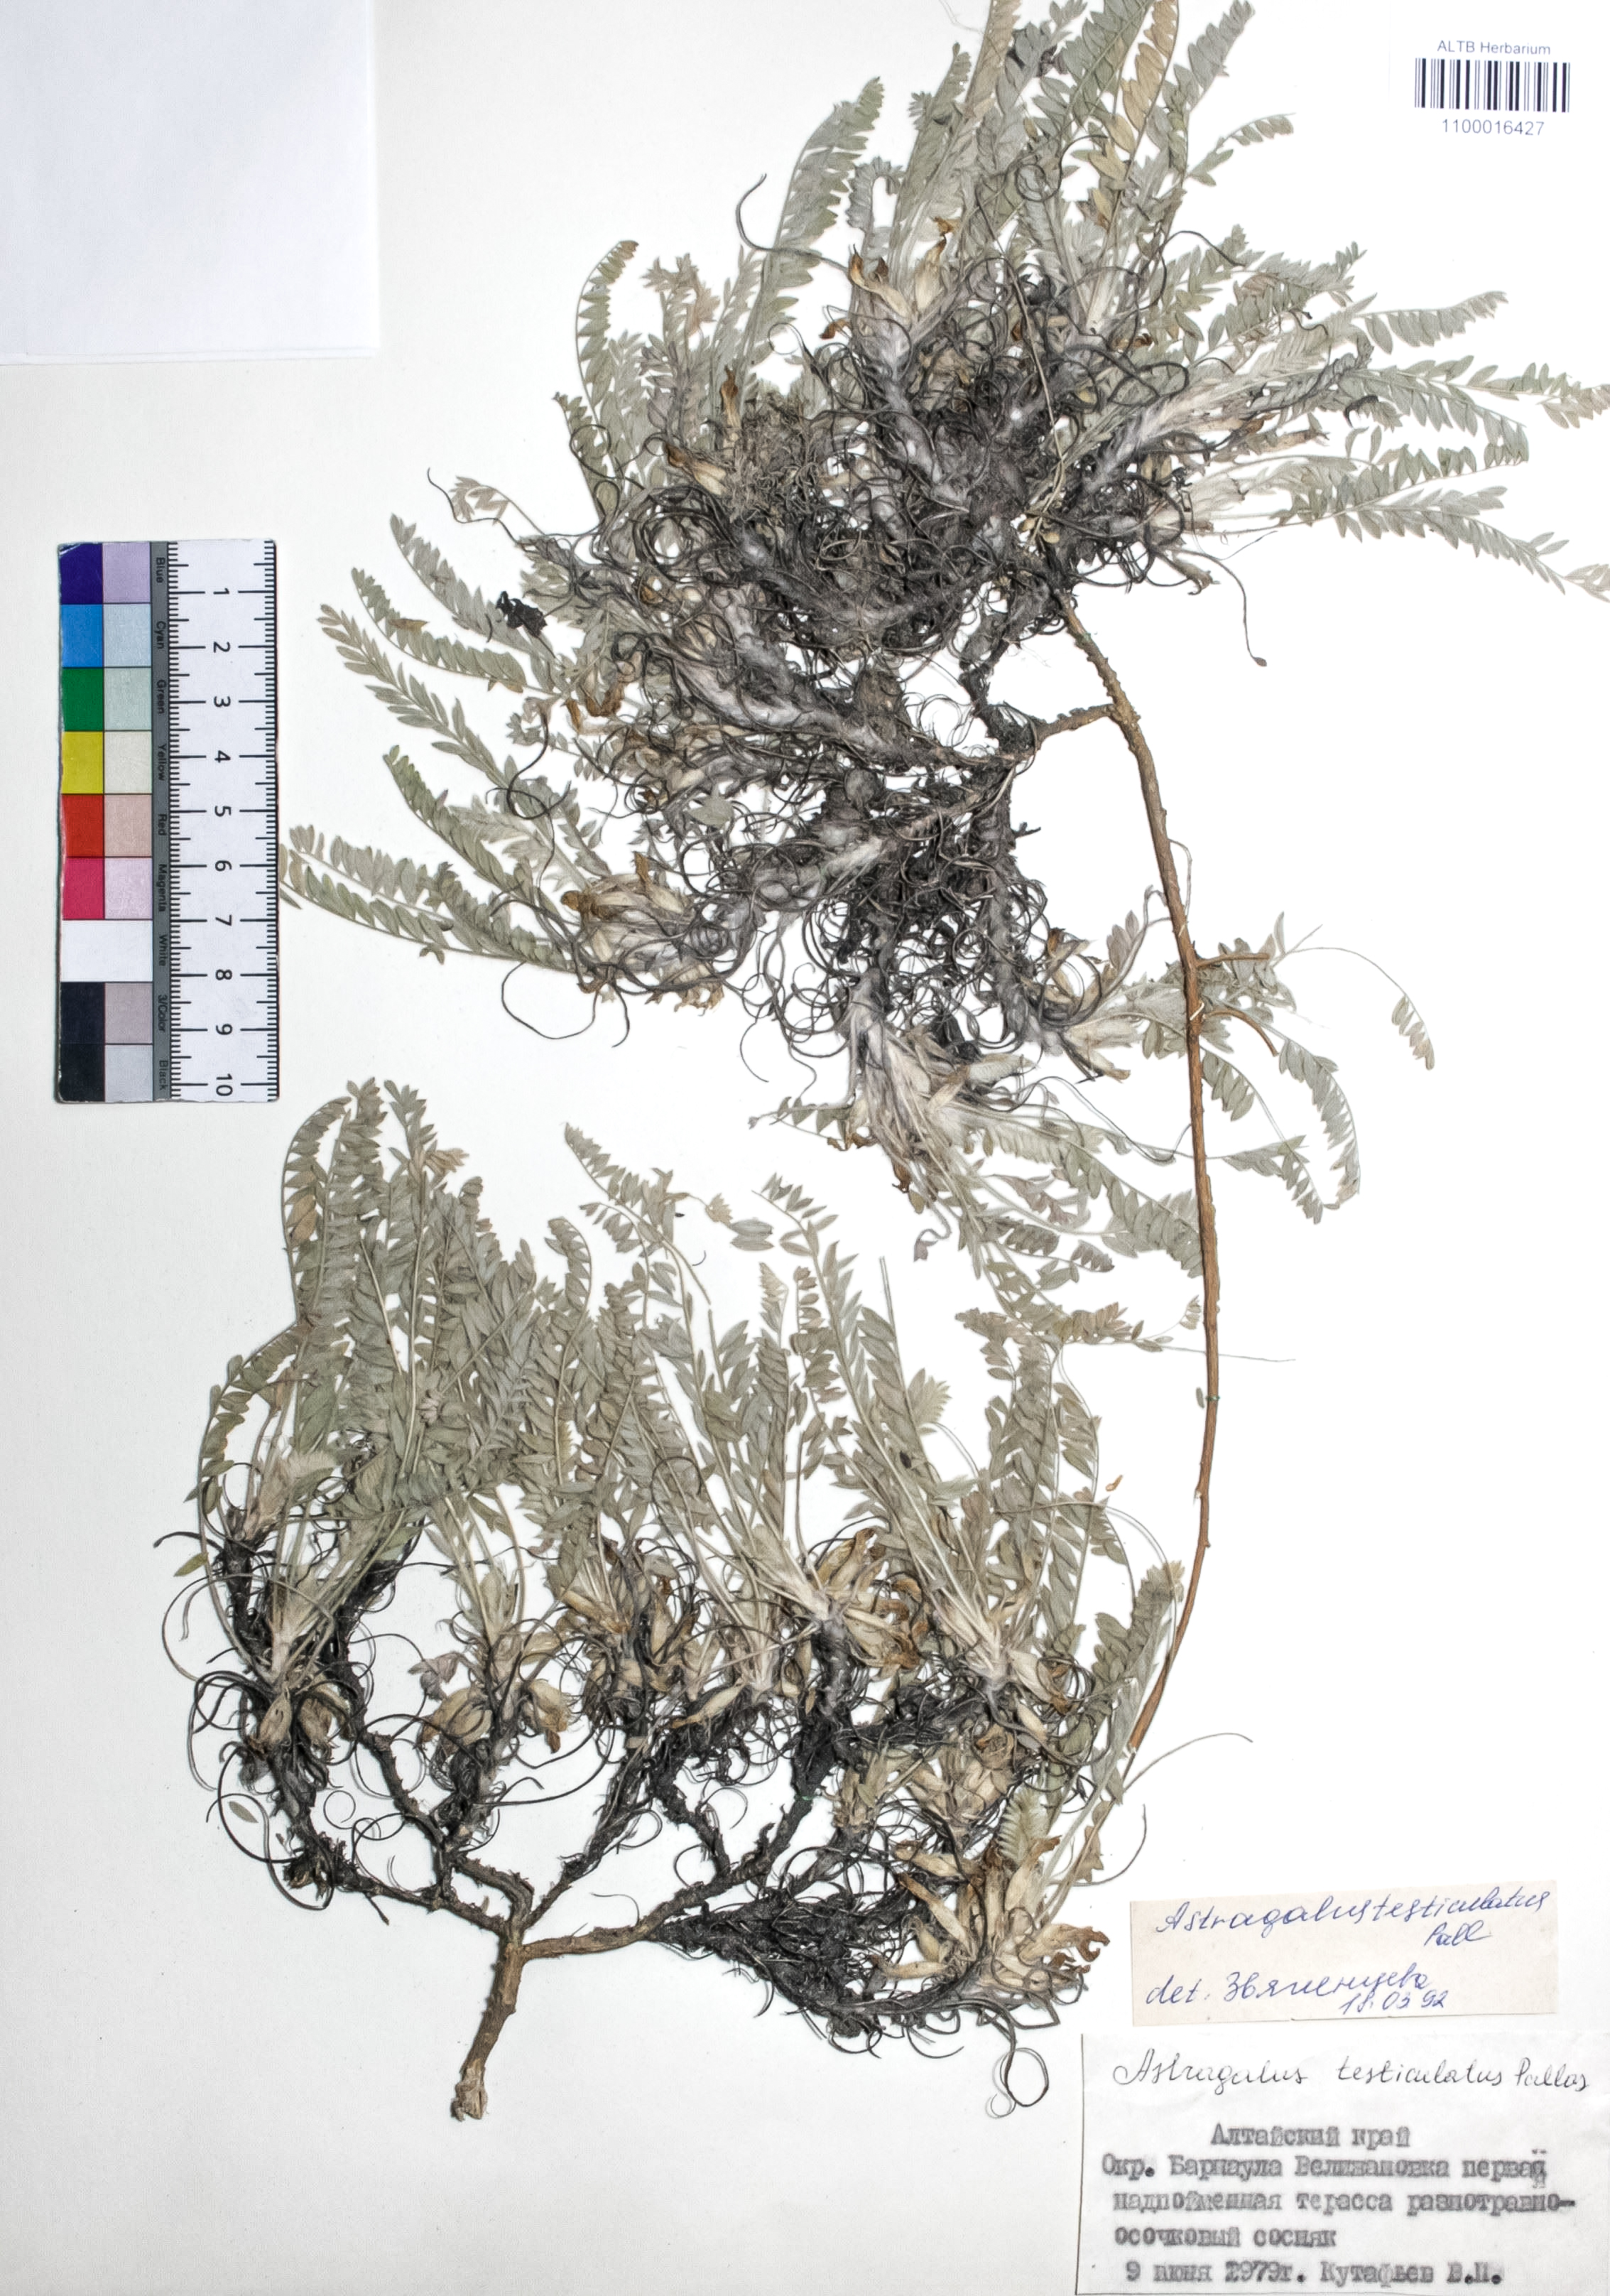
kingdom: Plantae
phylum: Tracheophyta
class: Magnoliopsida
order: Fabales
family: Fabaceae
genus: Astragalus
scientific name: Astragalus testiculatus
